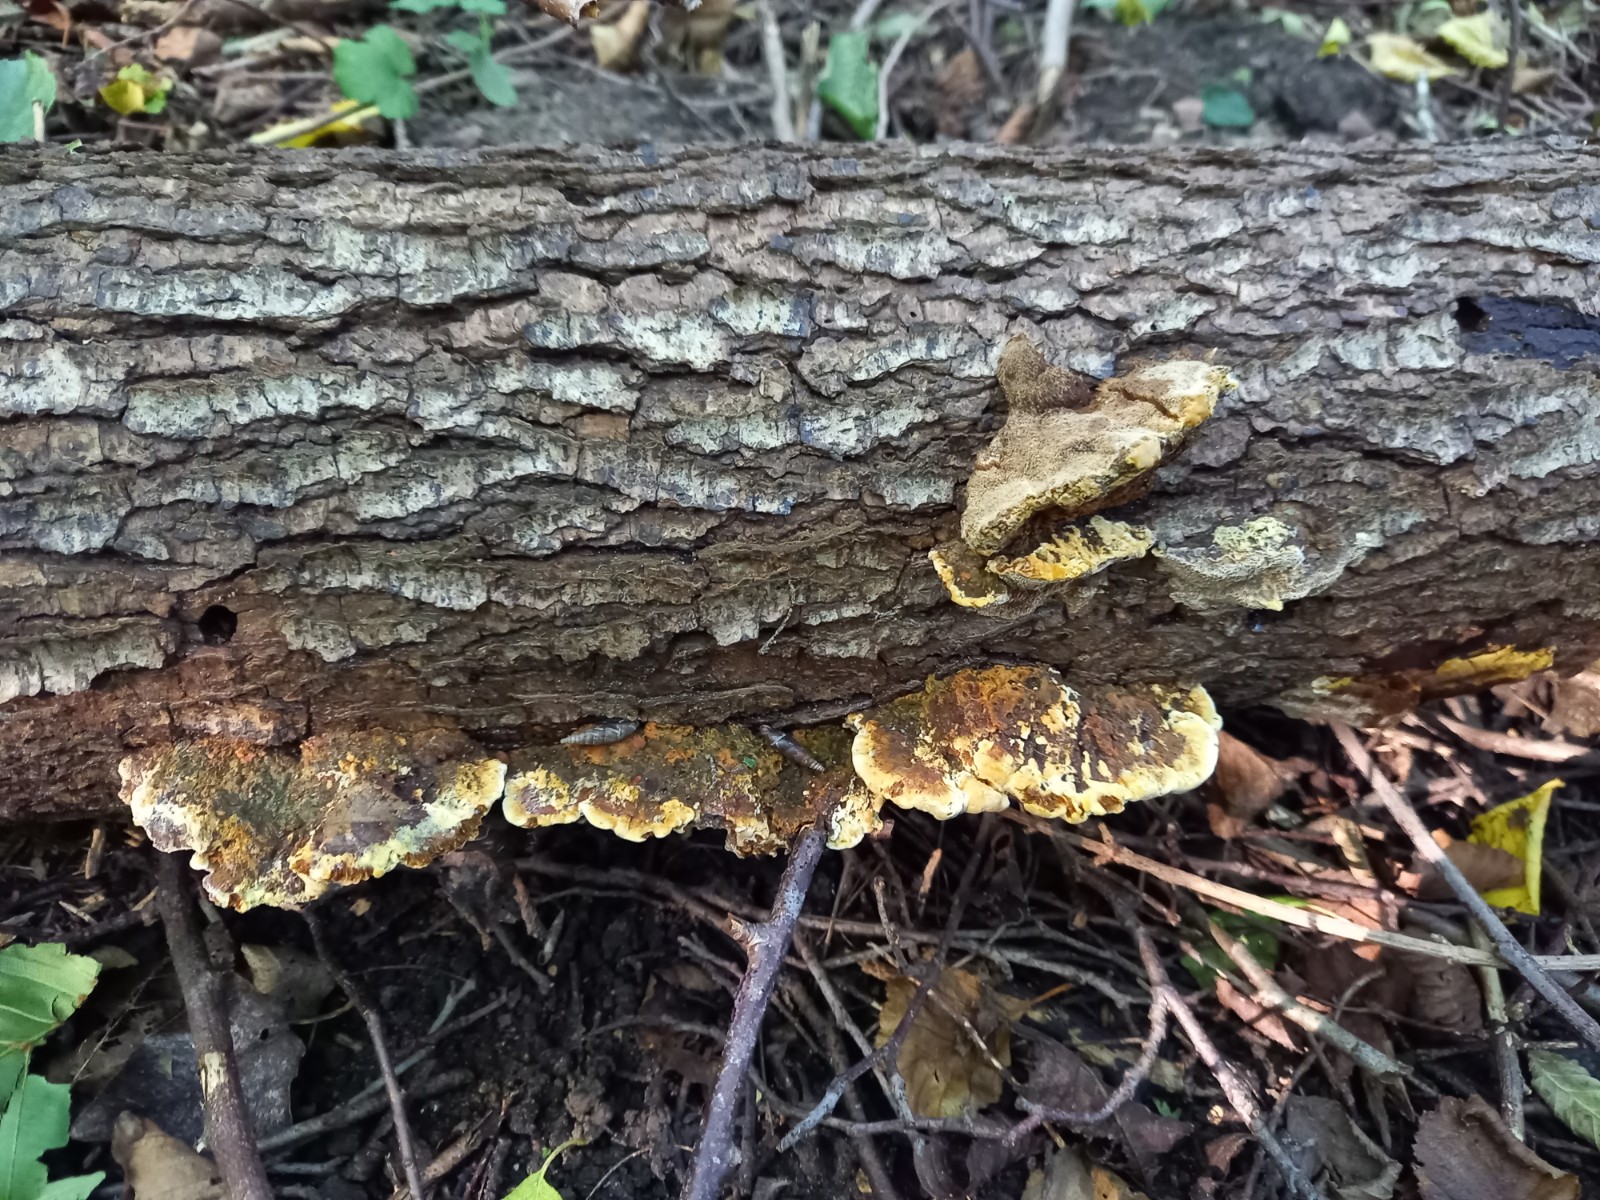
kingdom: Fungi
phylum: Basidiomycota
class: Agaricomycetes
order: Hymenochaetales
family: Hymenochaetaceae
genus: Xanthoporia
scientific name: Xanthoporia radiata
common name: elle-spejlporesvamp
